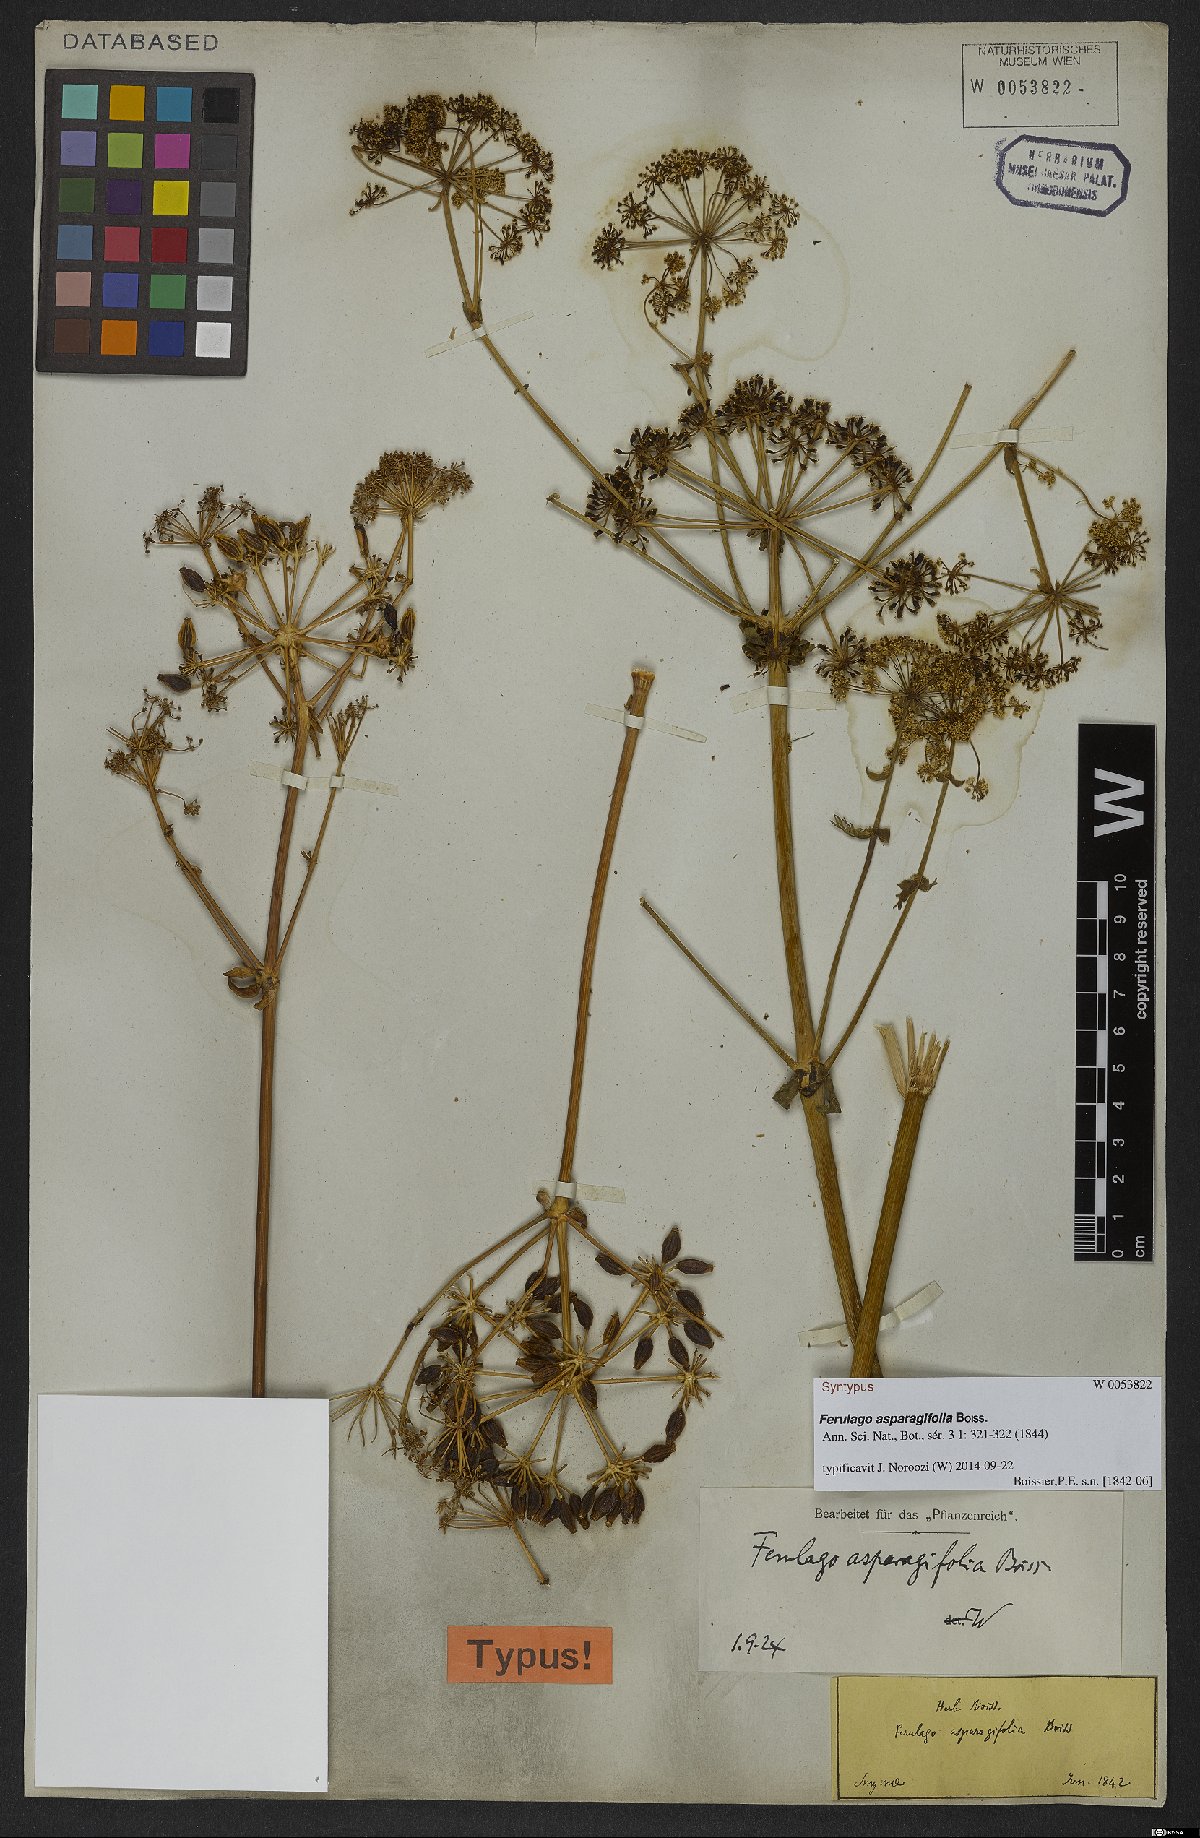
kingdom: Plantae
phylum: Tracheophyta
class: Magnoliopsida
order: Apiales
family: Apiaceae
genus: Ferulago
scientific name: Ferulago asparagifolia
